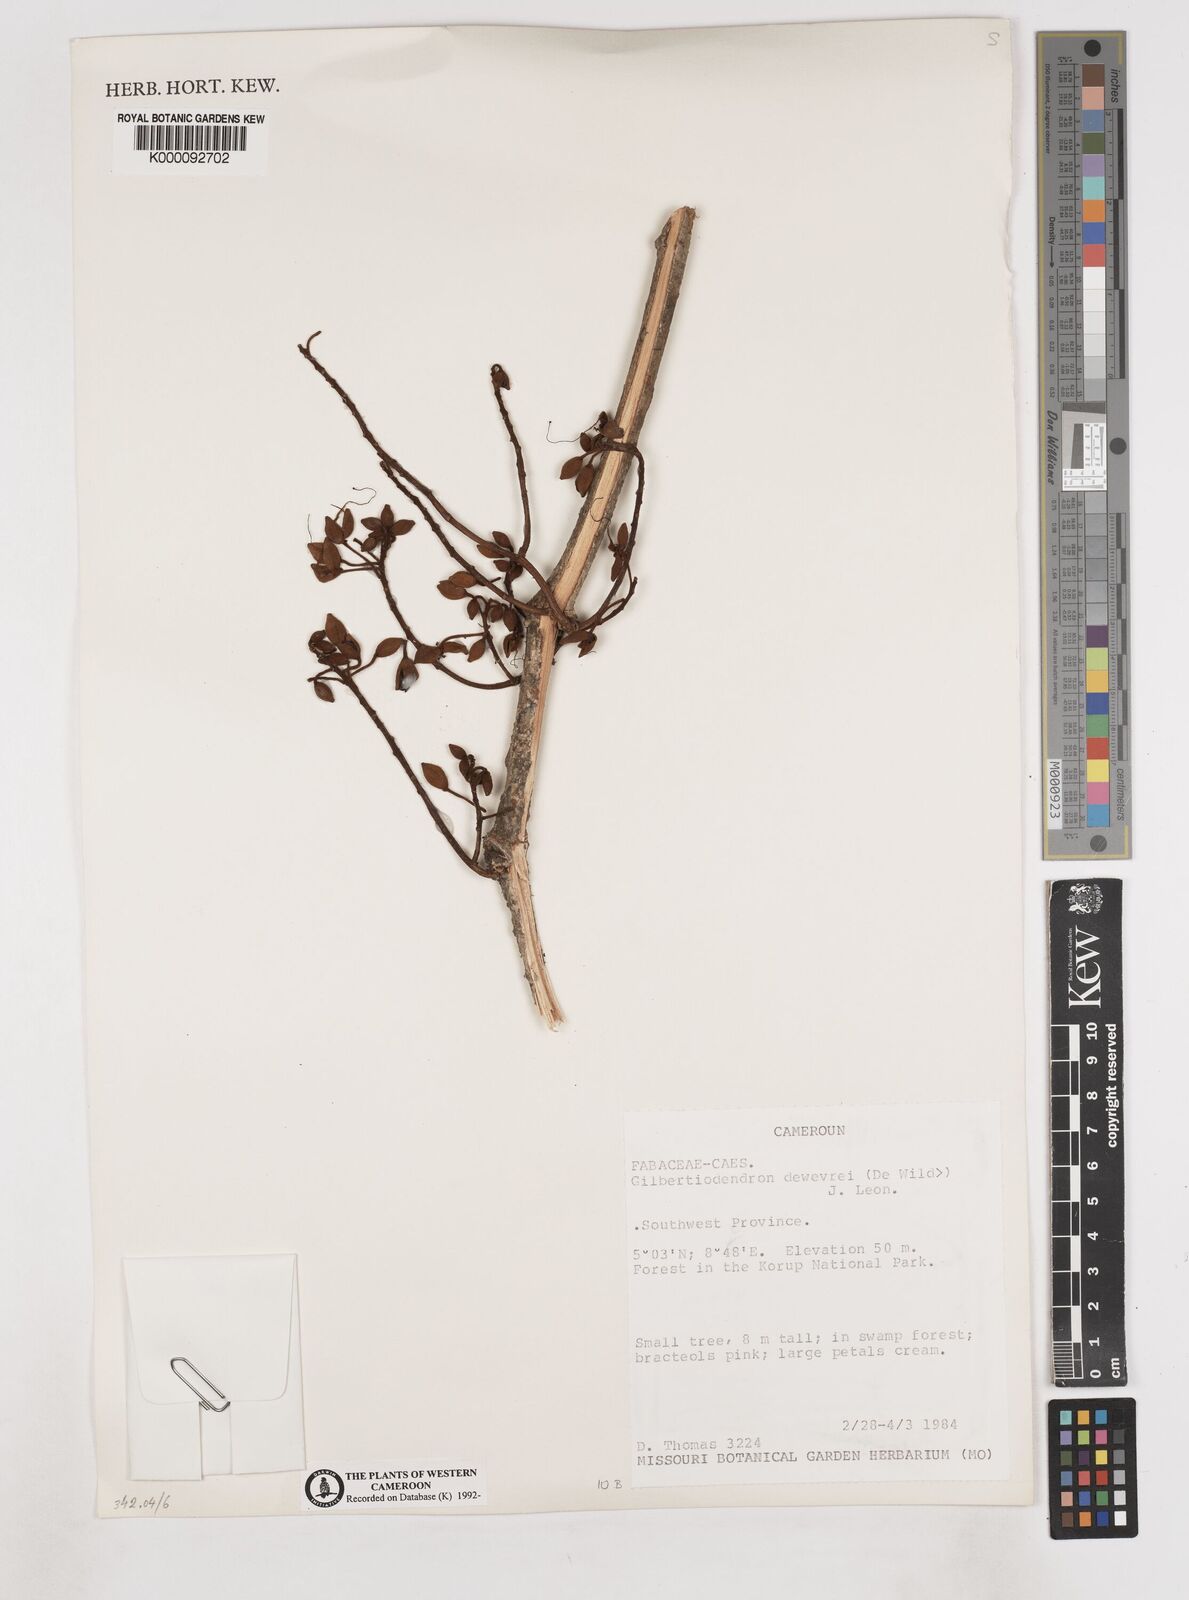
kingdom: Plantae
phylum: Tracheophyta
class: Magnoliopsida
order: Fabales
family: Fabaceae
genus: Gilbertiodendron
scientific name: Gilbertiodendron
